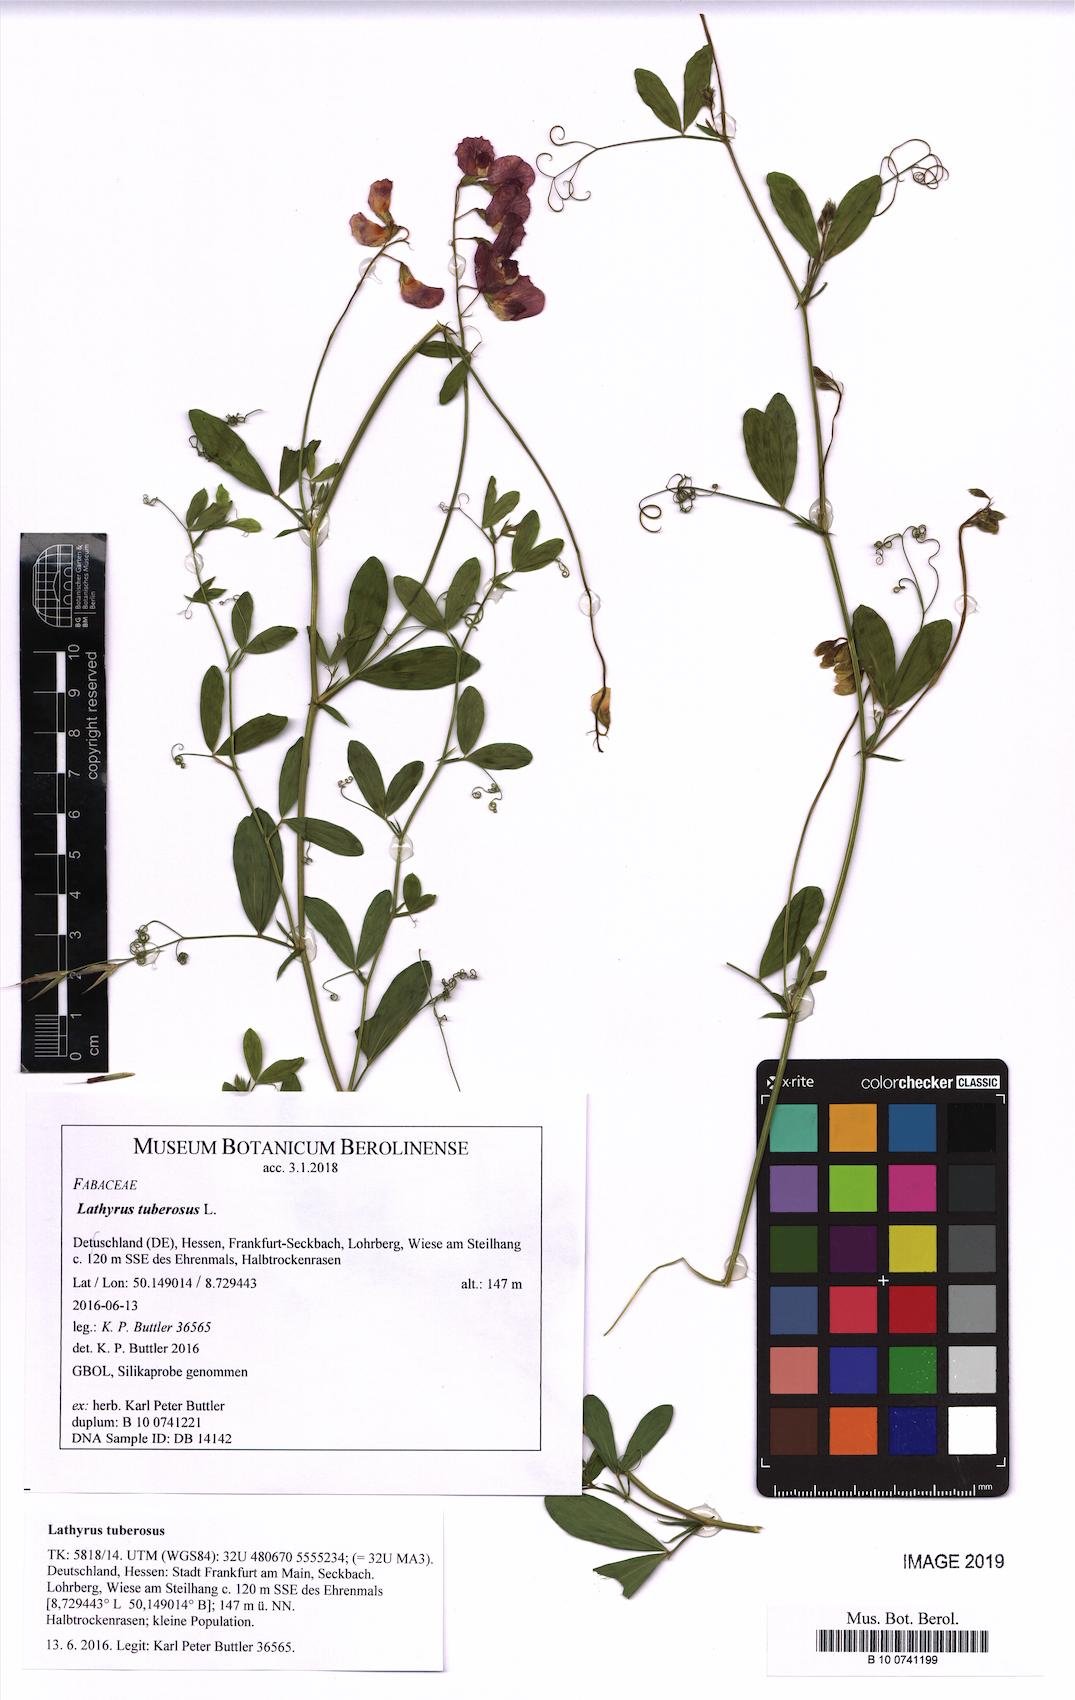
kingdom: Plantae
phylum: Tracheophyta
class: Magnoliopsida
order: Fabales
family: Fabaceae
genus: Lathyrus
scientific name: Lathyrus tuberosus
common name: Tuberous pea
